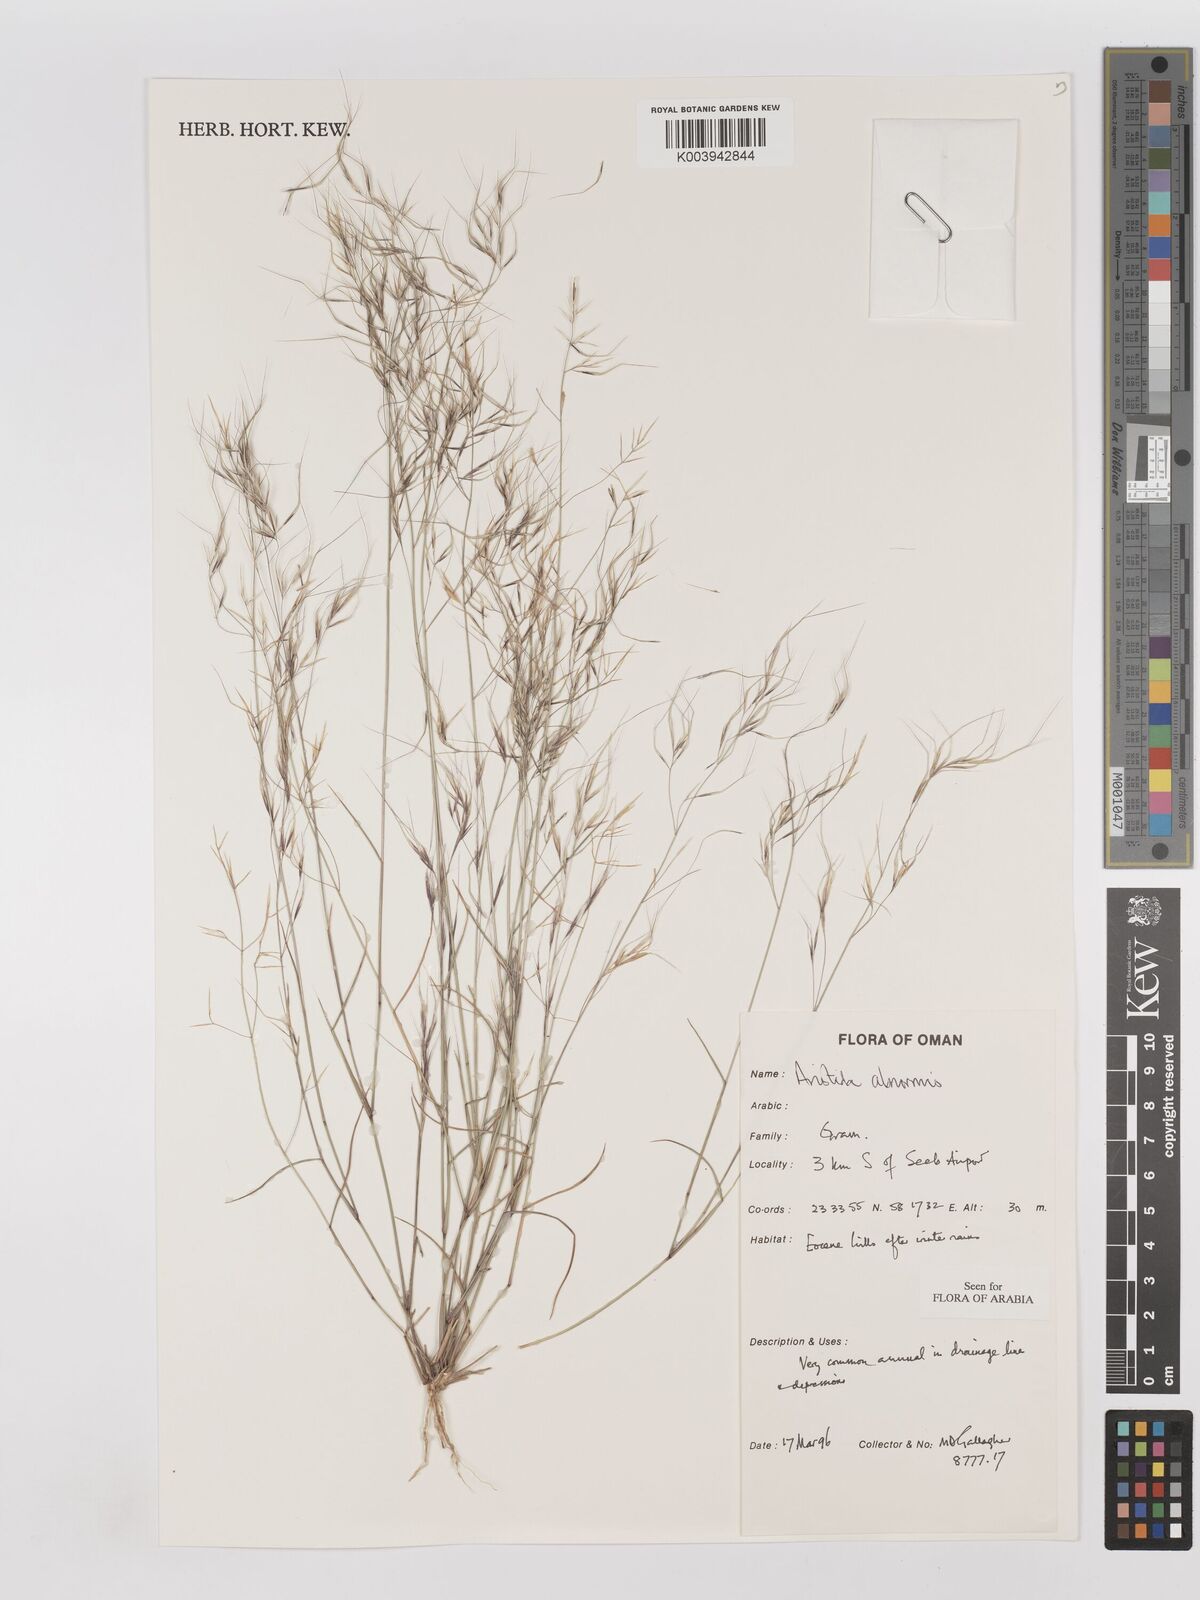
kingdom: Plantae
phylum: Tracheophyta
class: Liliopsida
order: Poales
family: Poaceae
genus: Aristida
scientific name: Aristida abnormis
